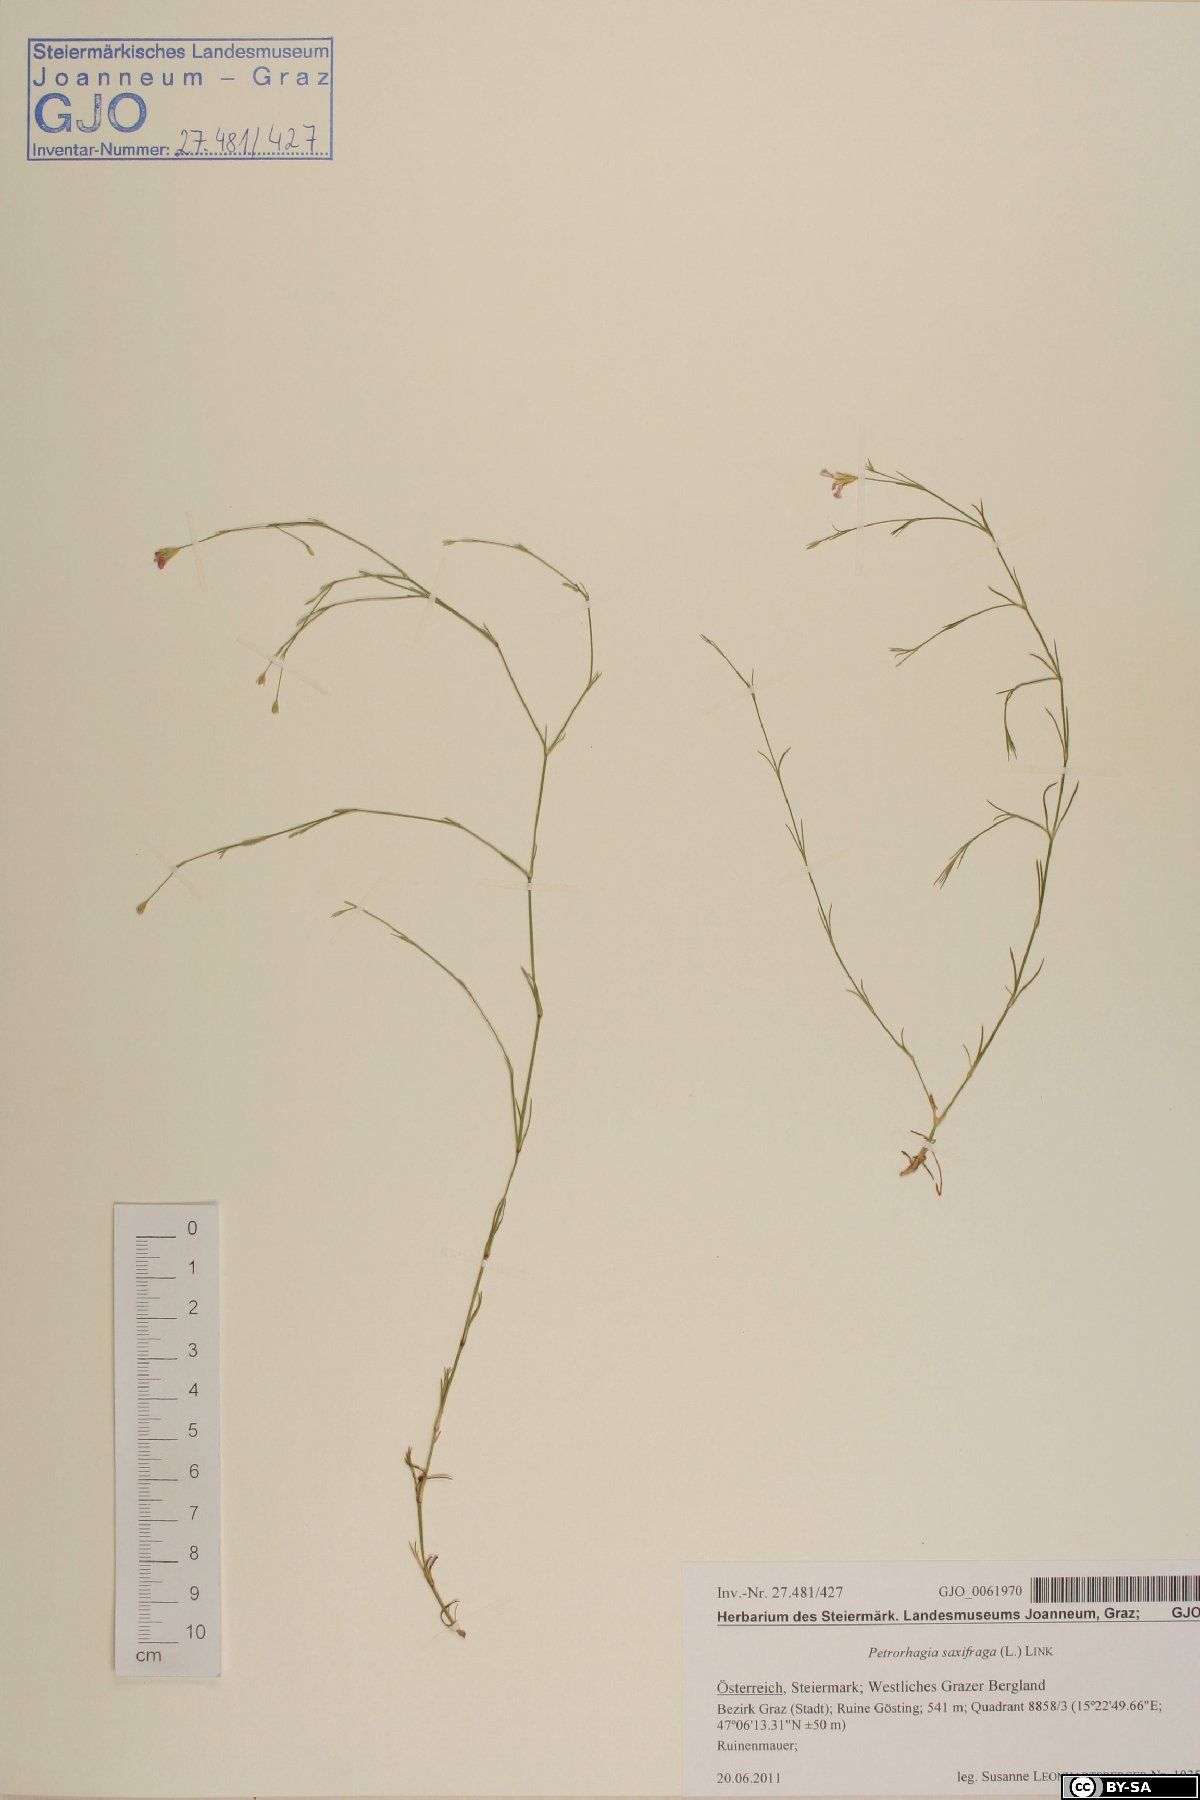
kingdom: Plantae
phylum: Tracheophyta
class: Magnoliopsida
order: Caryophyllales
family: Caryophyllaceae
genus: Petrorhagia
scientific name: Petrorhagia saxifraga
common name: Tunicflower
